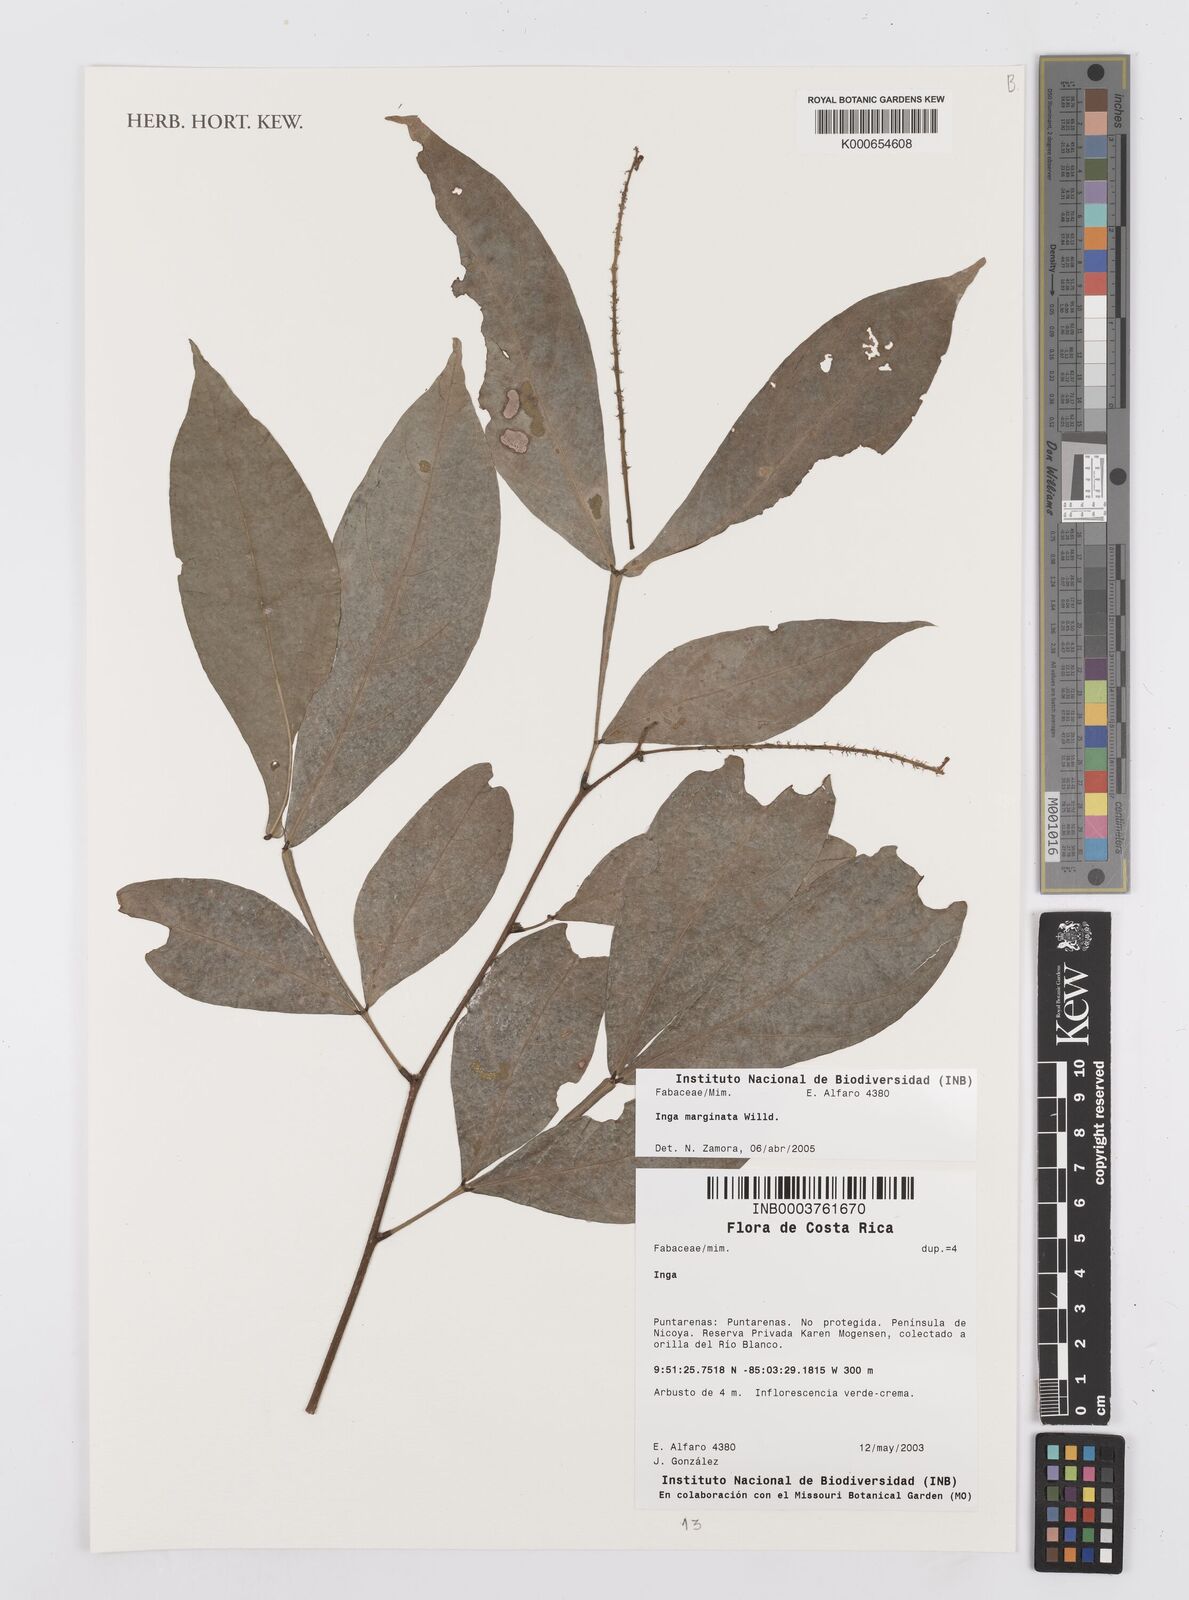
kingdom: Plantae
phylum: Tracheophyta
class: Magnoliopsida
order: Fabales
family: Fabaceae
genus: Inga
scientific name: Inga marginata
